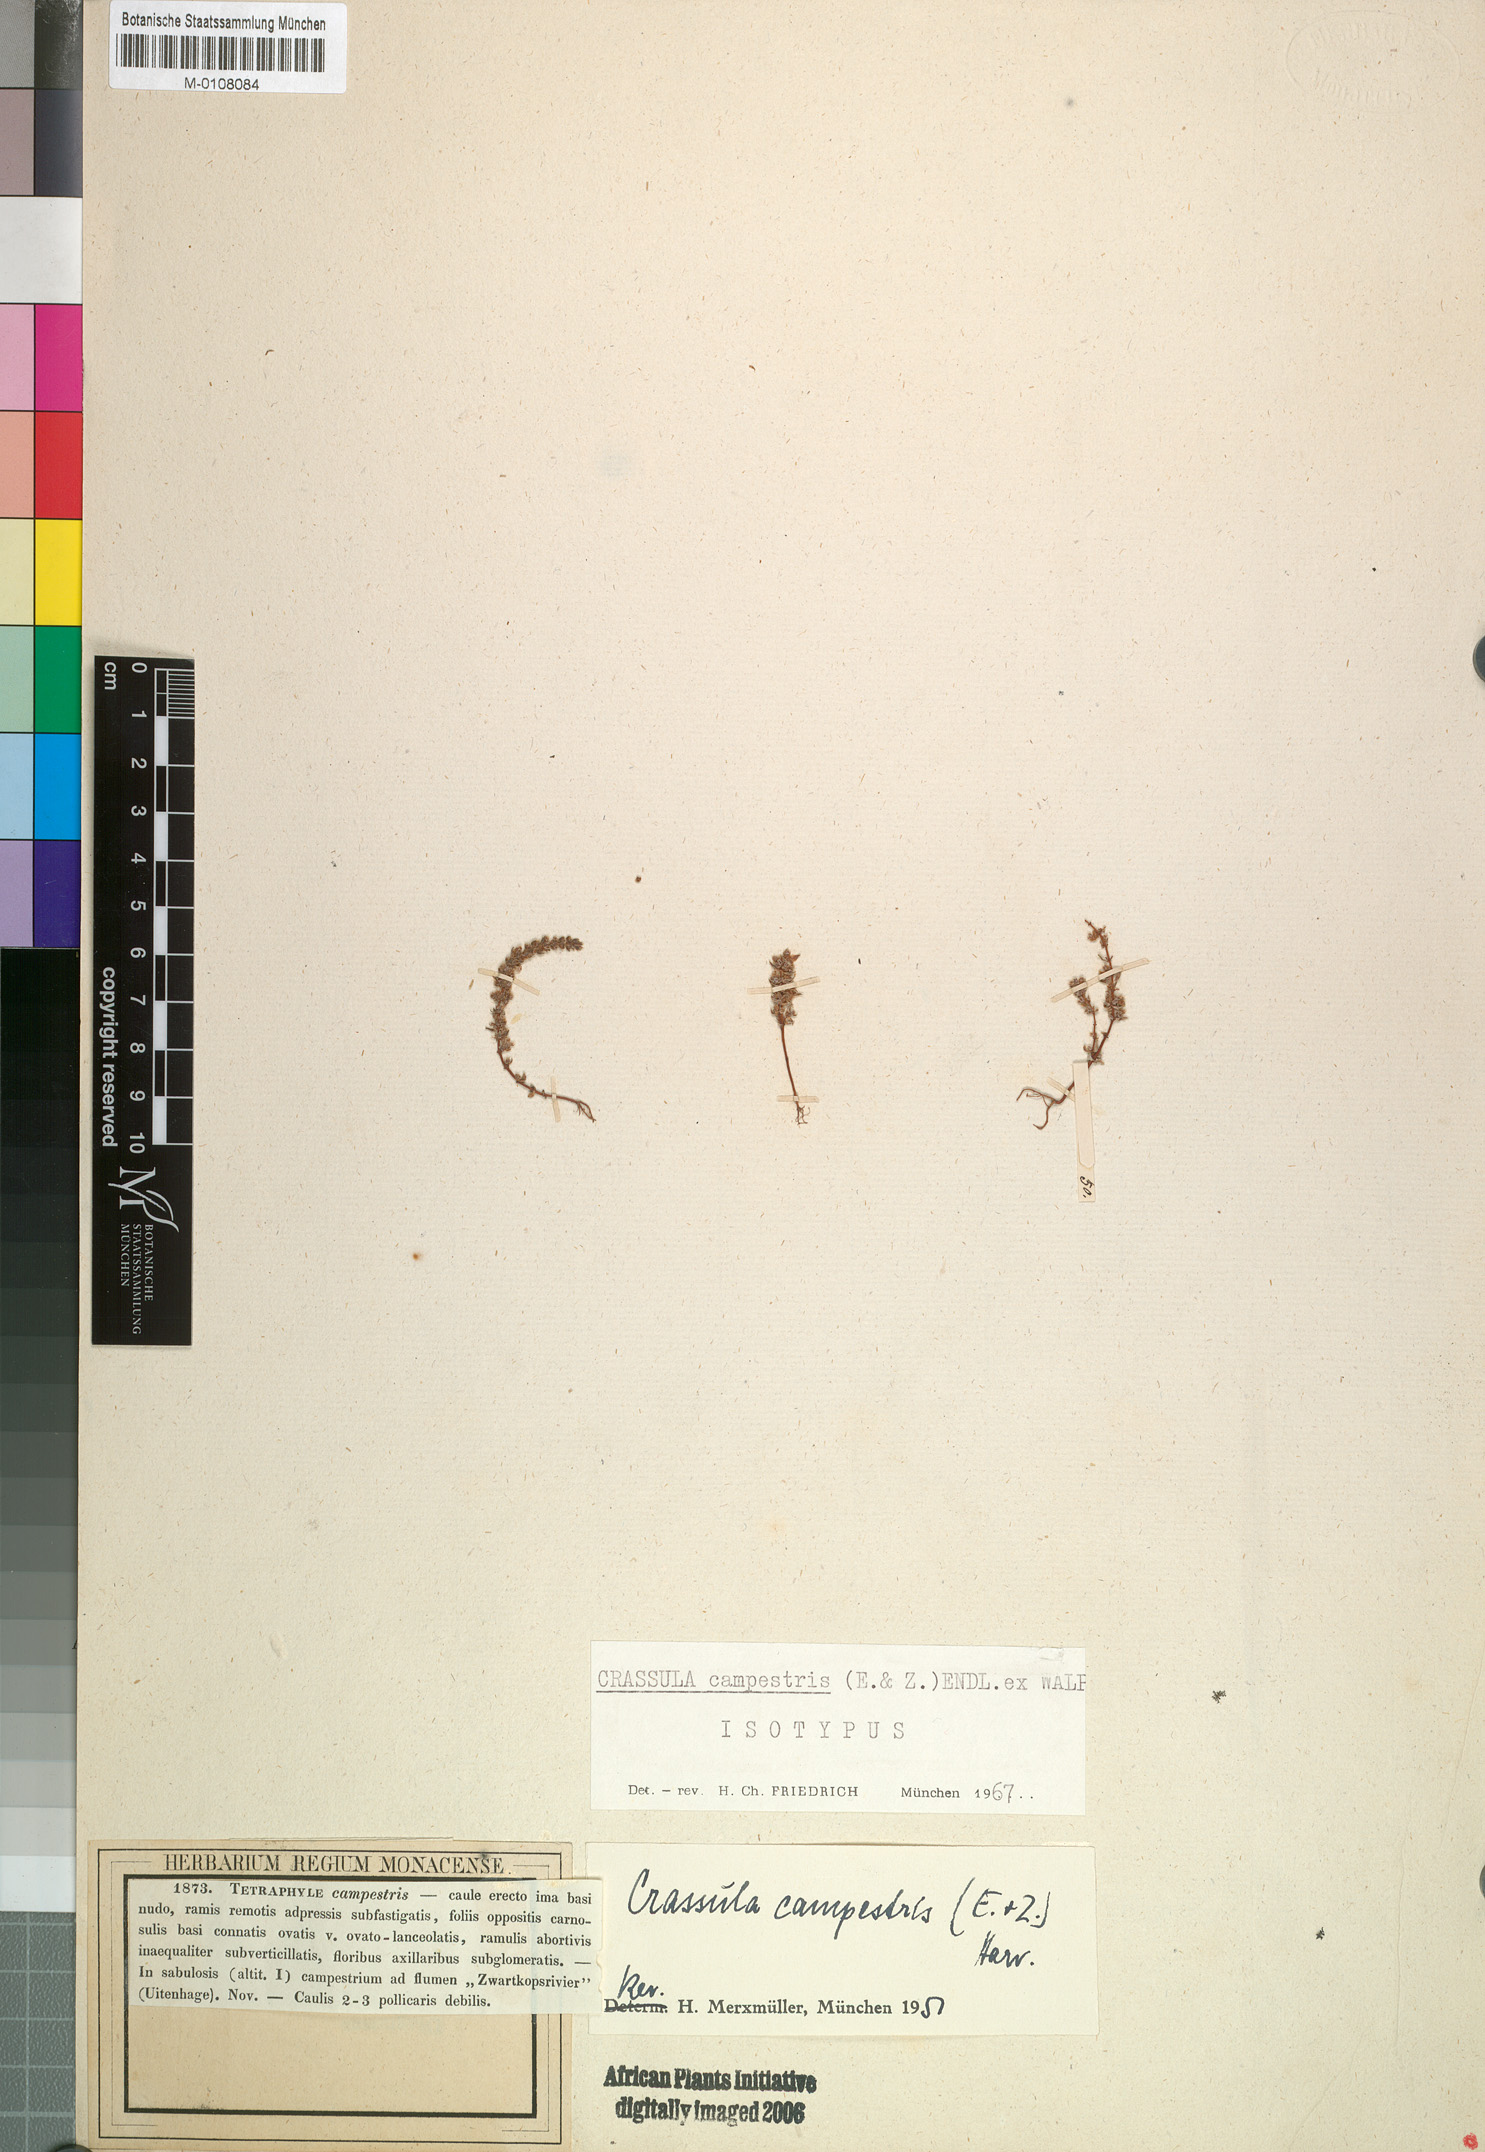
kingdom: Plantae
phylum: Tracheophyta
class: Magnoliopsida
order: Saxifragales
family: Crassulaceae
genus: Crassula
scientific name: Crassula campestris
